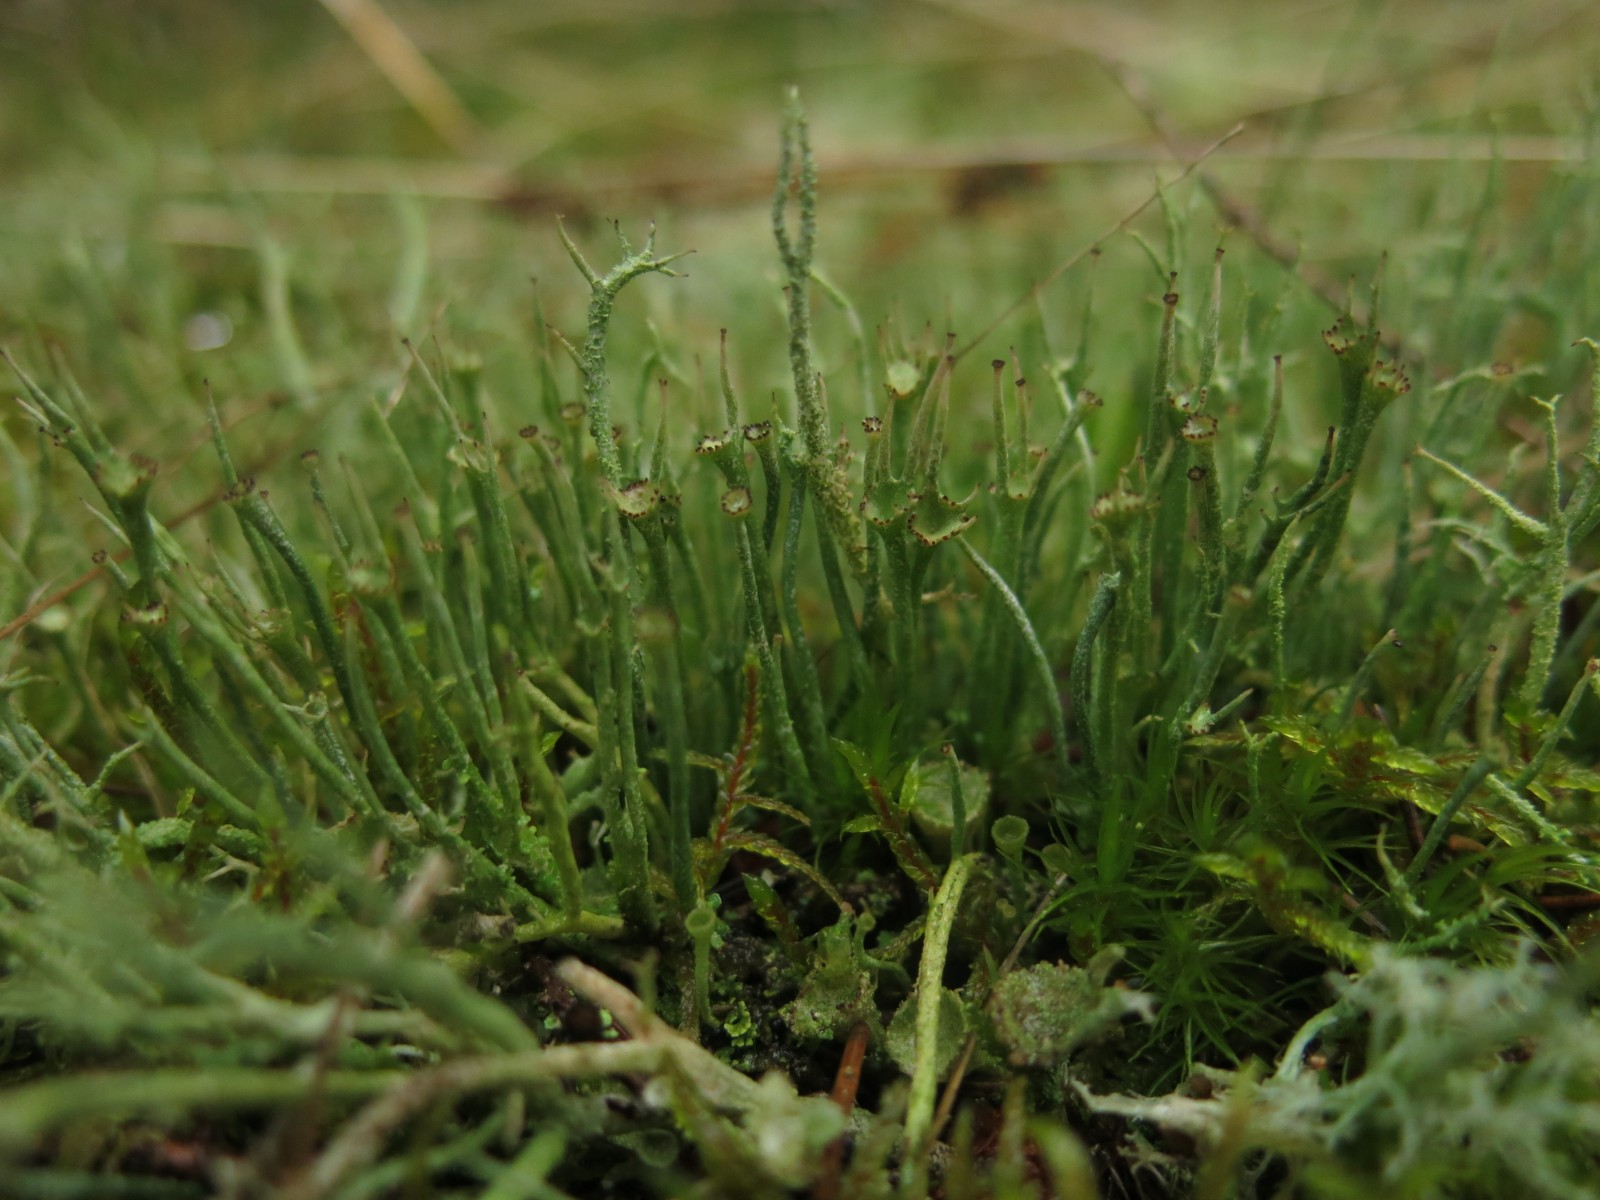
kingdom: Fungi
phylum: Ascomycota
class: Lecanoromycetes
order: Lecanorales
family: Cladoniaceae
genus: Cladonia
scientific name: Cladonia gracilis
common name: slank bægerlav
